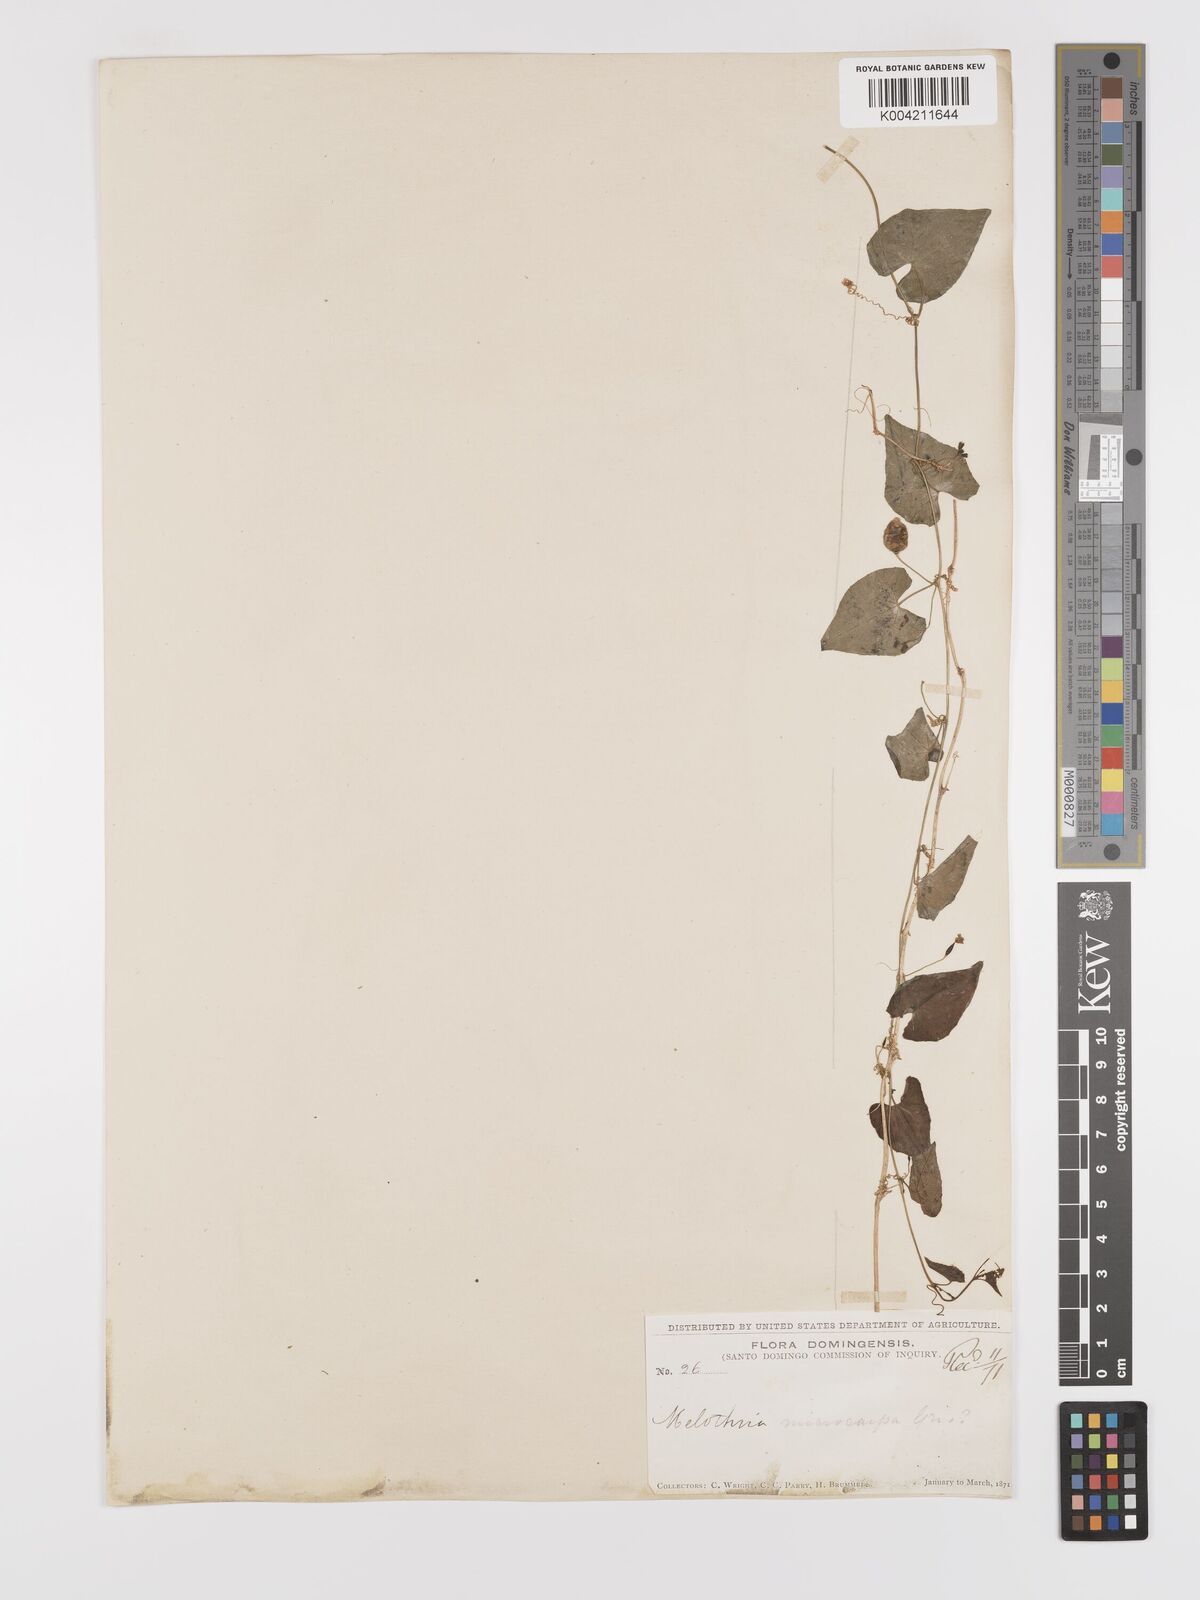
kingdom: Plantae
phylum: Tracheophyta
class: Magnoliopsida
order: Cucurbitales
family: Cucurbitaceae
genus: Melothria
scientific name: Melothria
